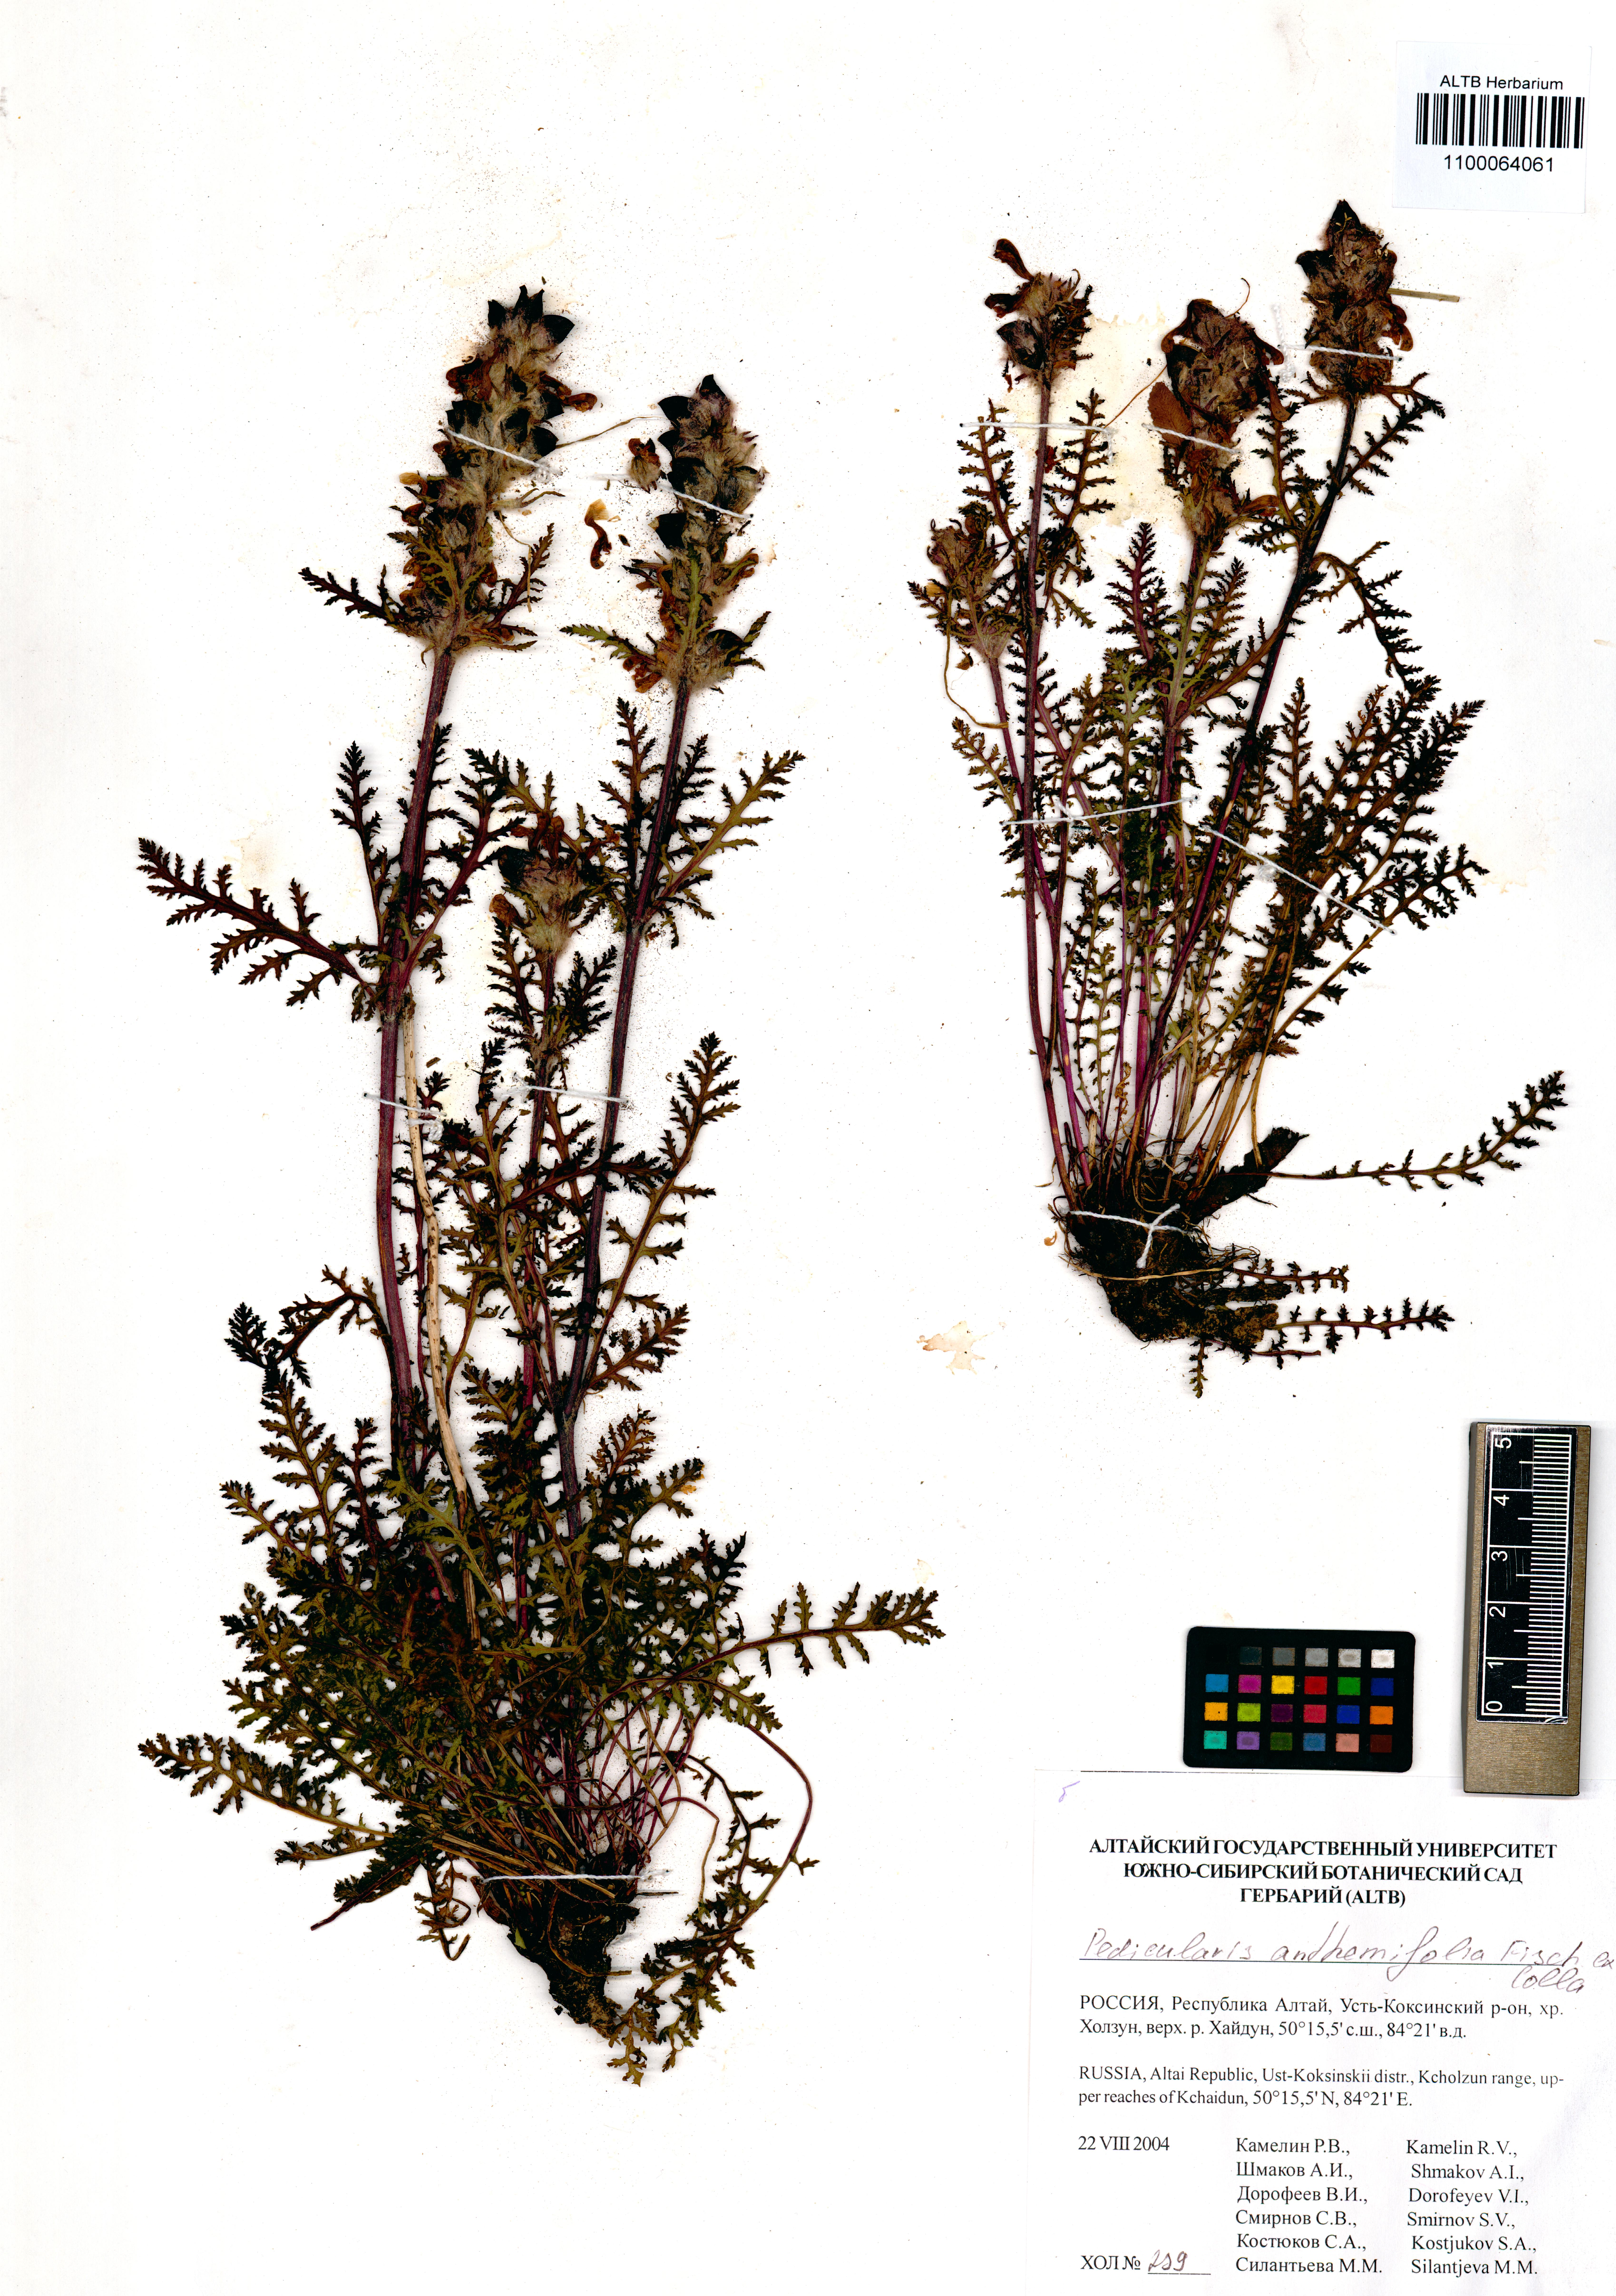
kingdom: Plantae
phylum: Tracheophyta
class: Magnoliopsida
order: Lamiales
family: Orobanchaceae
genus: Pedicularis
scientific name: Pedicularis anthemifolia
